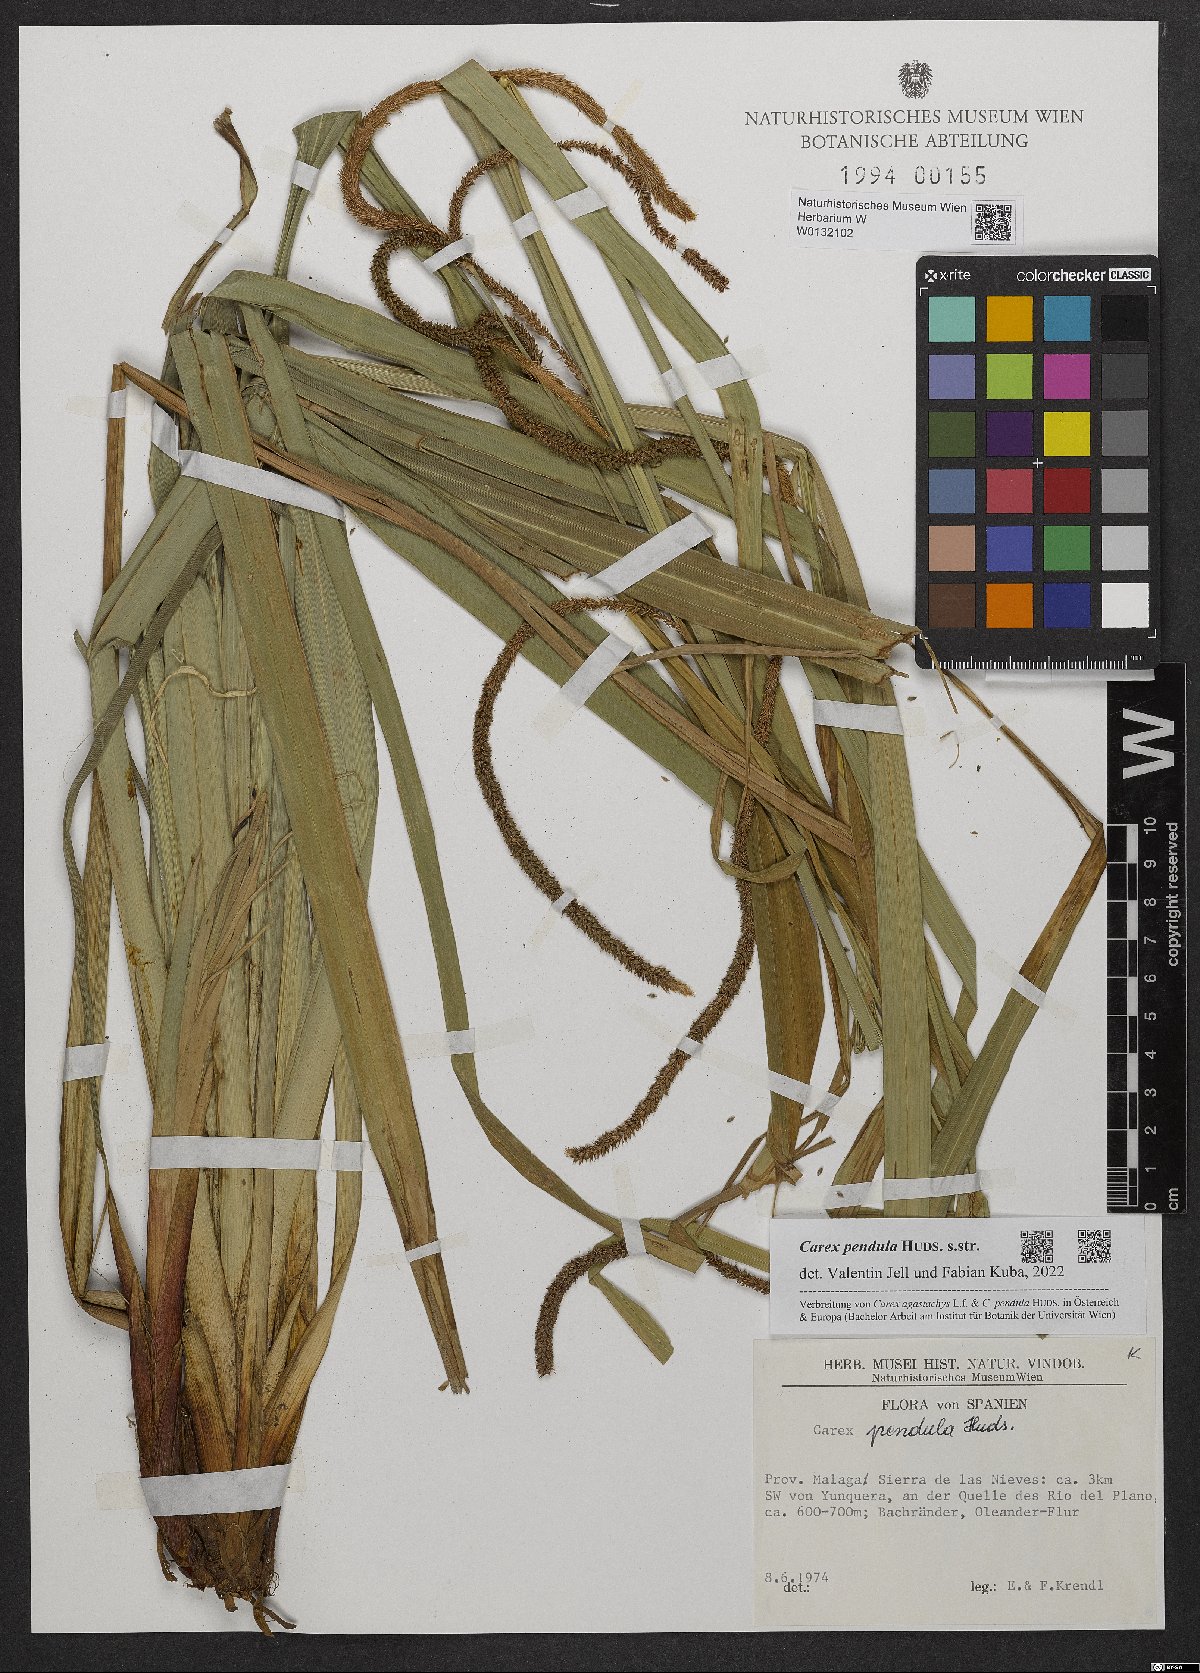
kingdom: Plantae
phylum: Tracheophyta
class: Liliopsida
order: Poales
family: Cyperaceae
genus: Carex
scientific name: Carex pendula
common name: Pendulous sedge
